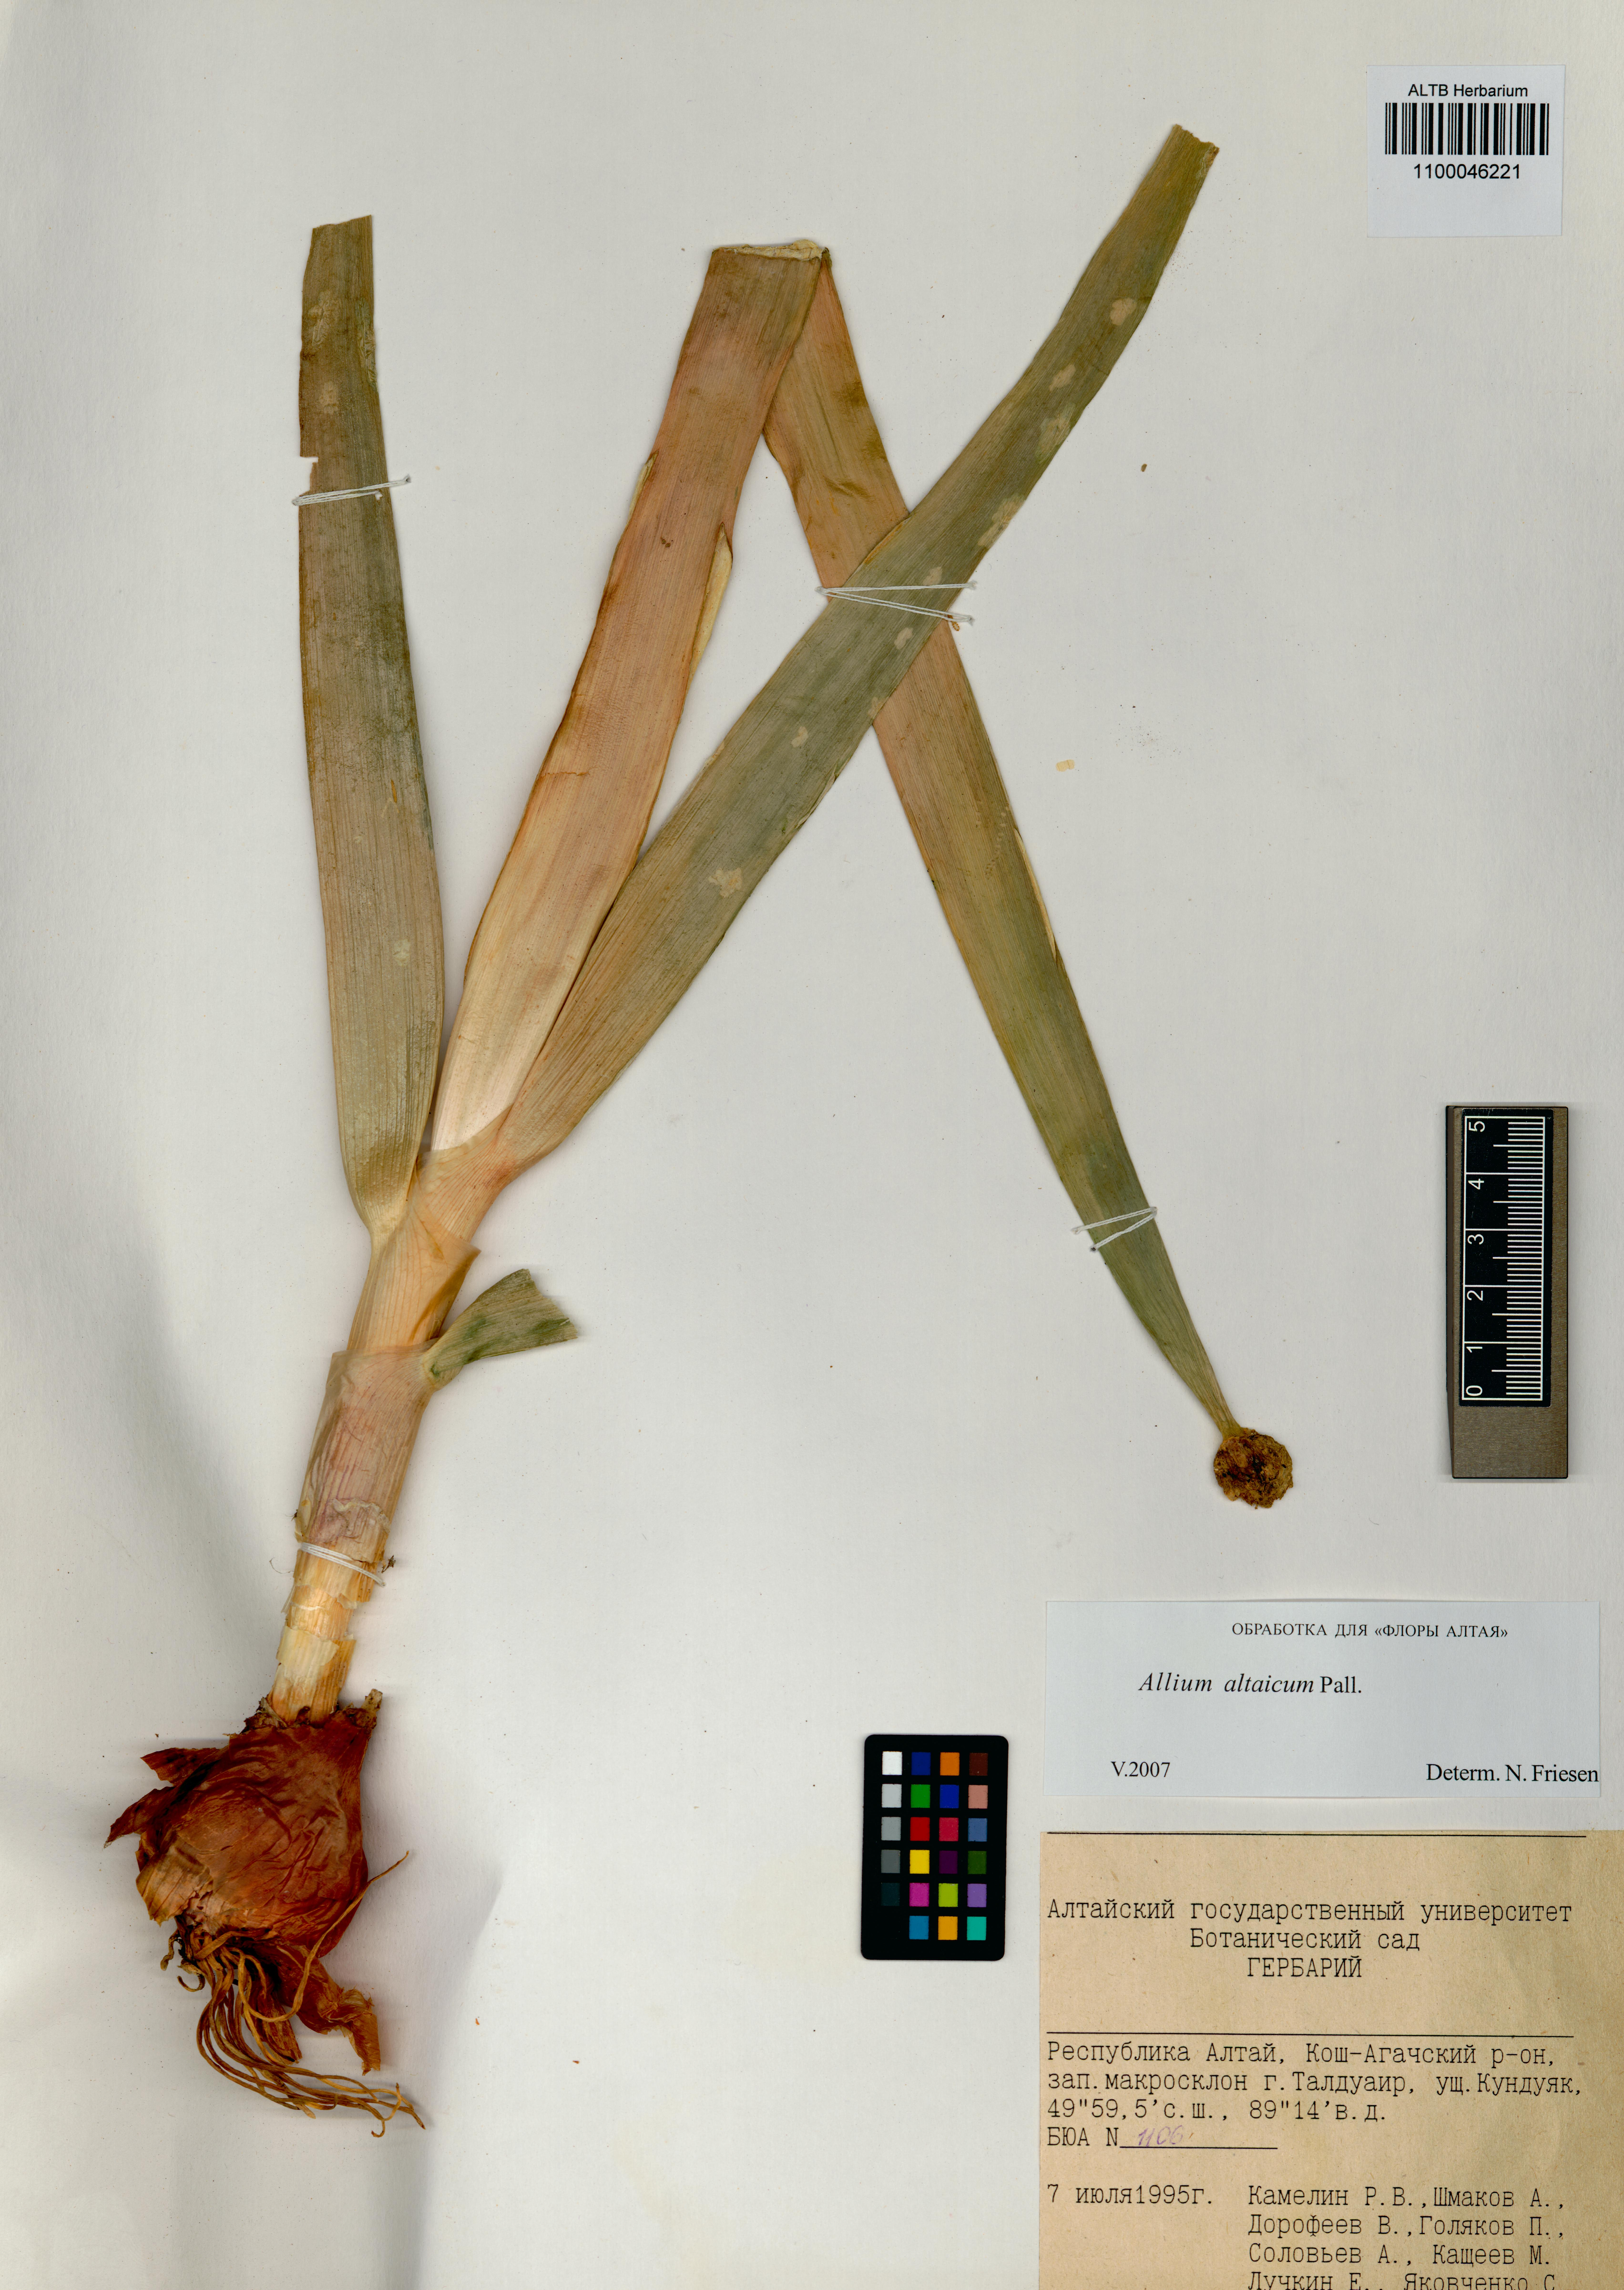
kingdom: Plantae
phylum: Tracheophyta
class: Liliopsida
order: Asparagales
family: Amaryllidaceae
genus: Allium
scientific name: Allium altaicum
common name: Altai onion
